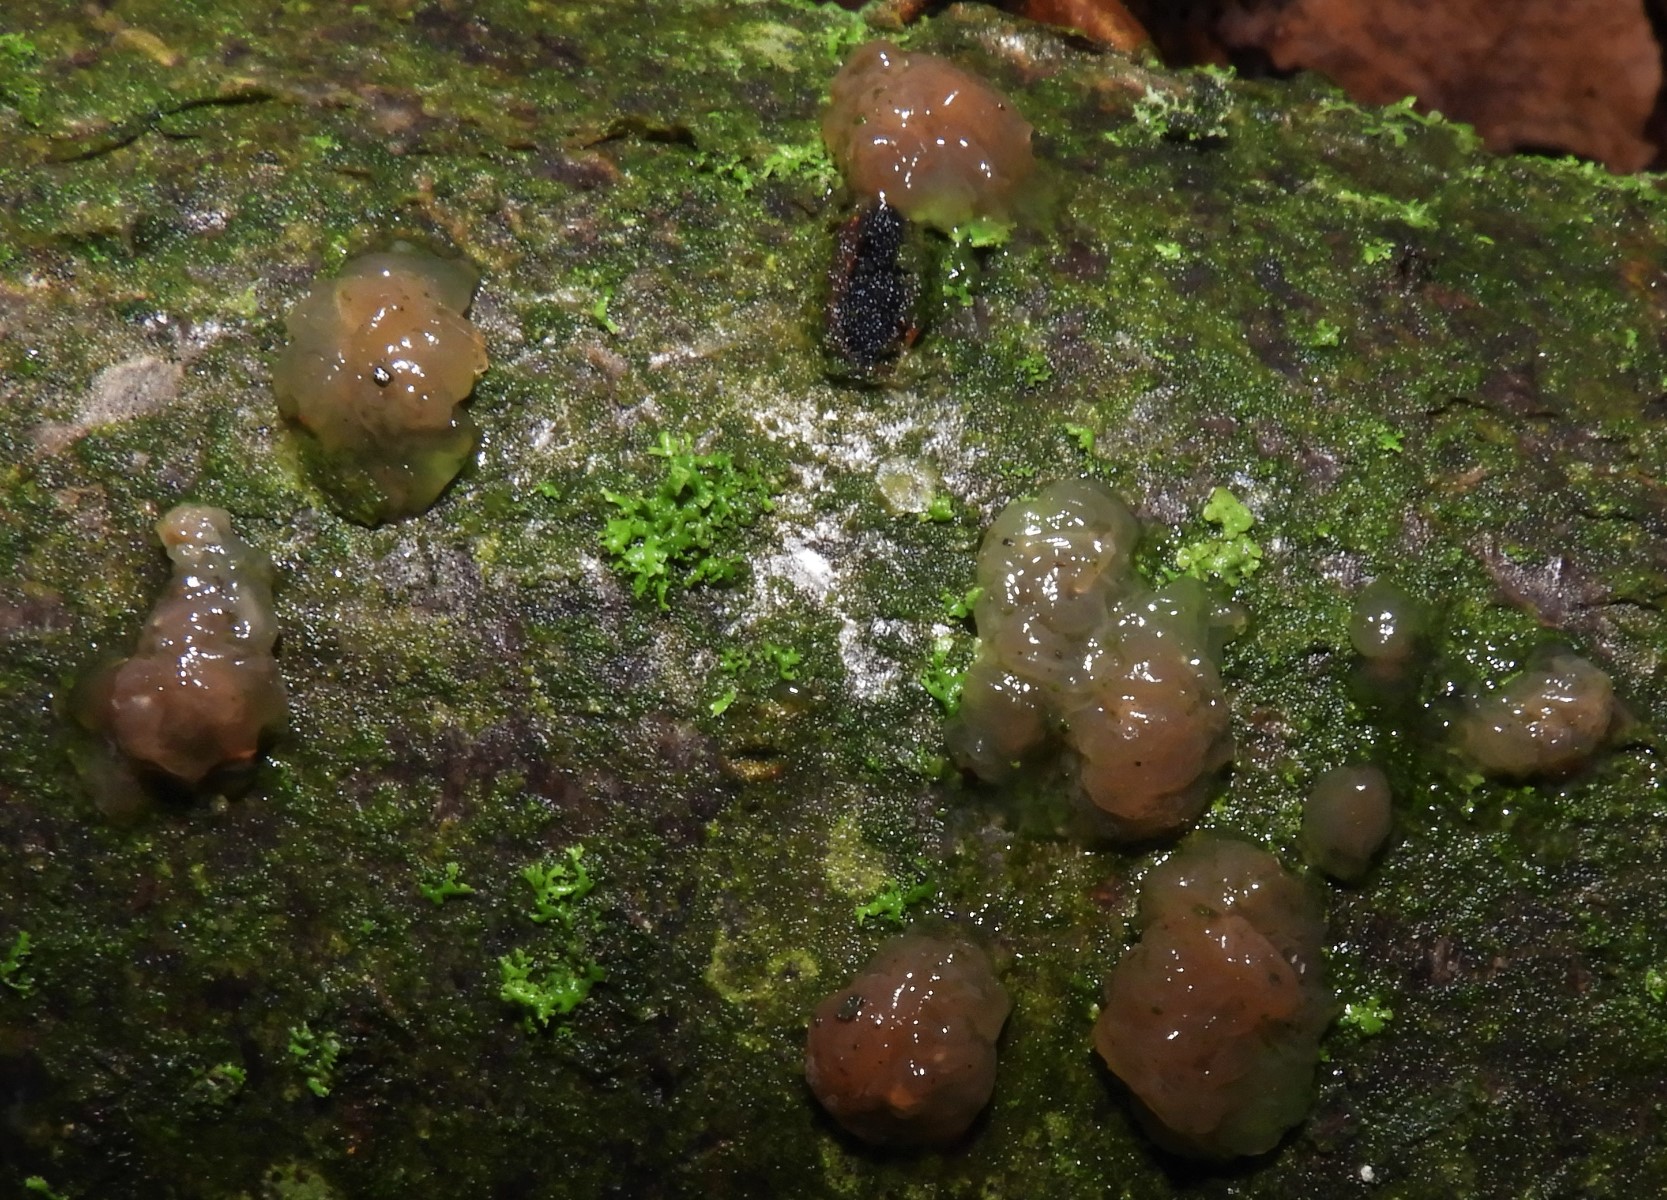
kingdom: Fungi
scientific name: Fungi
